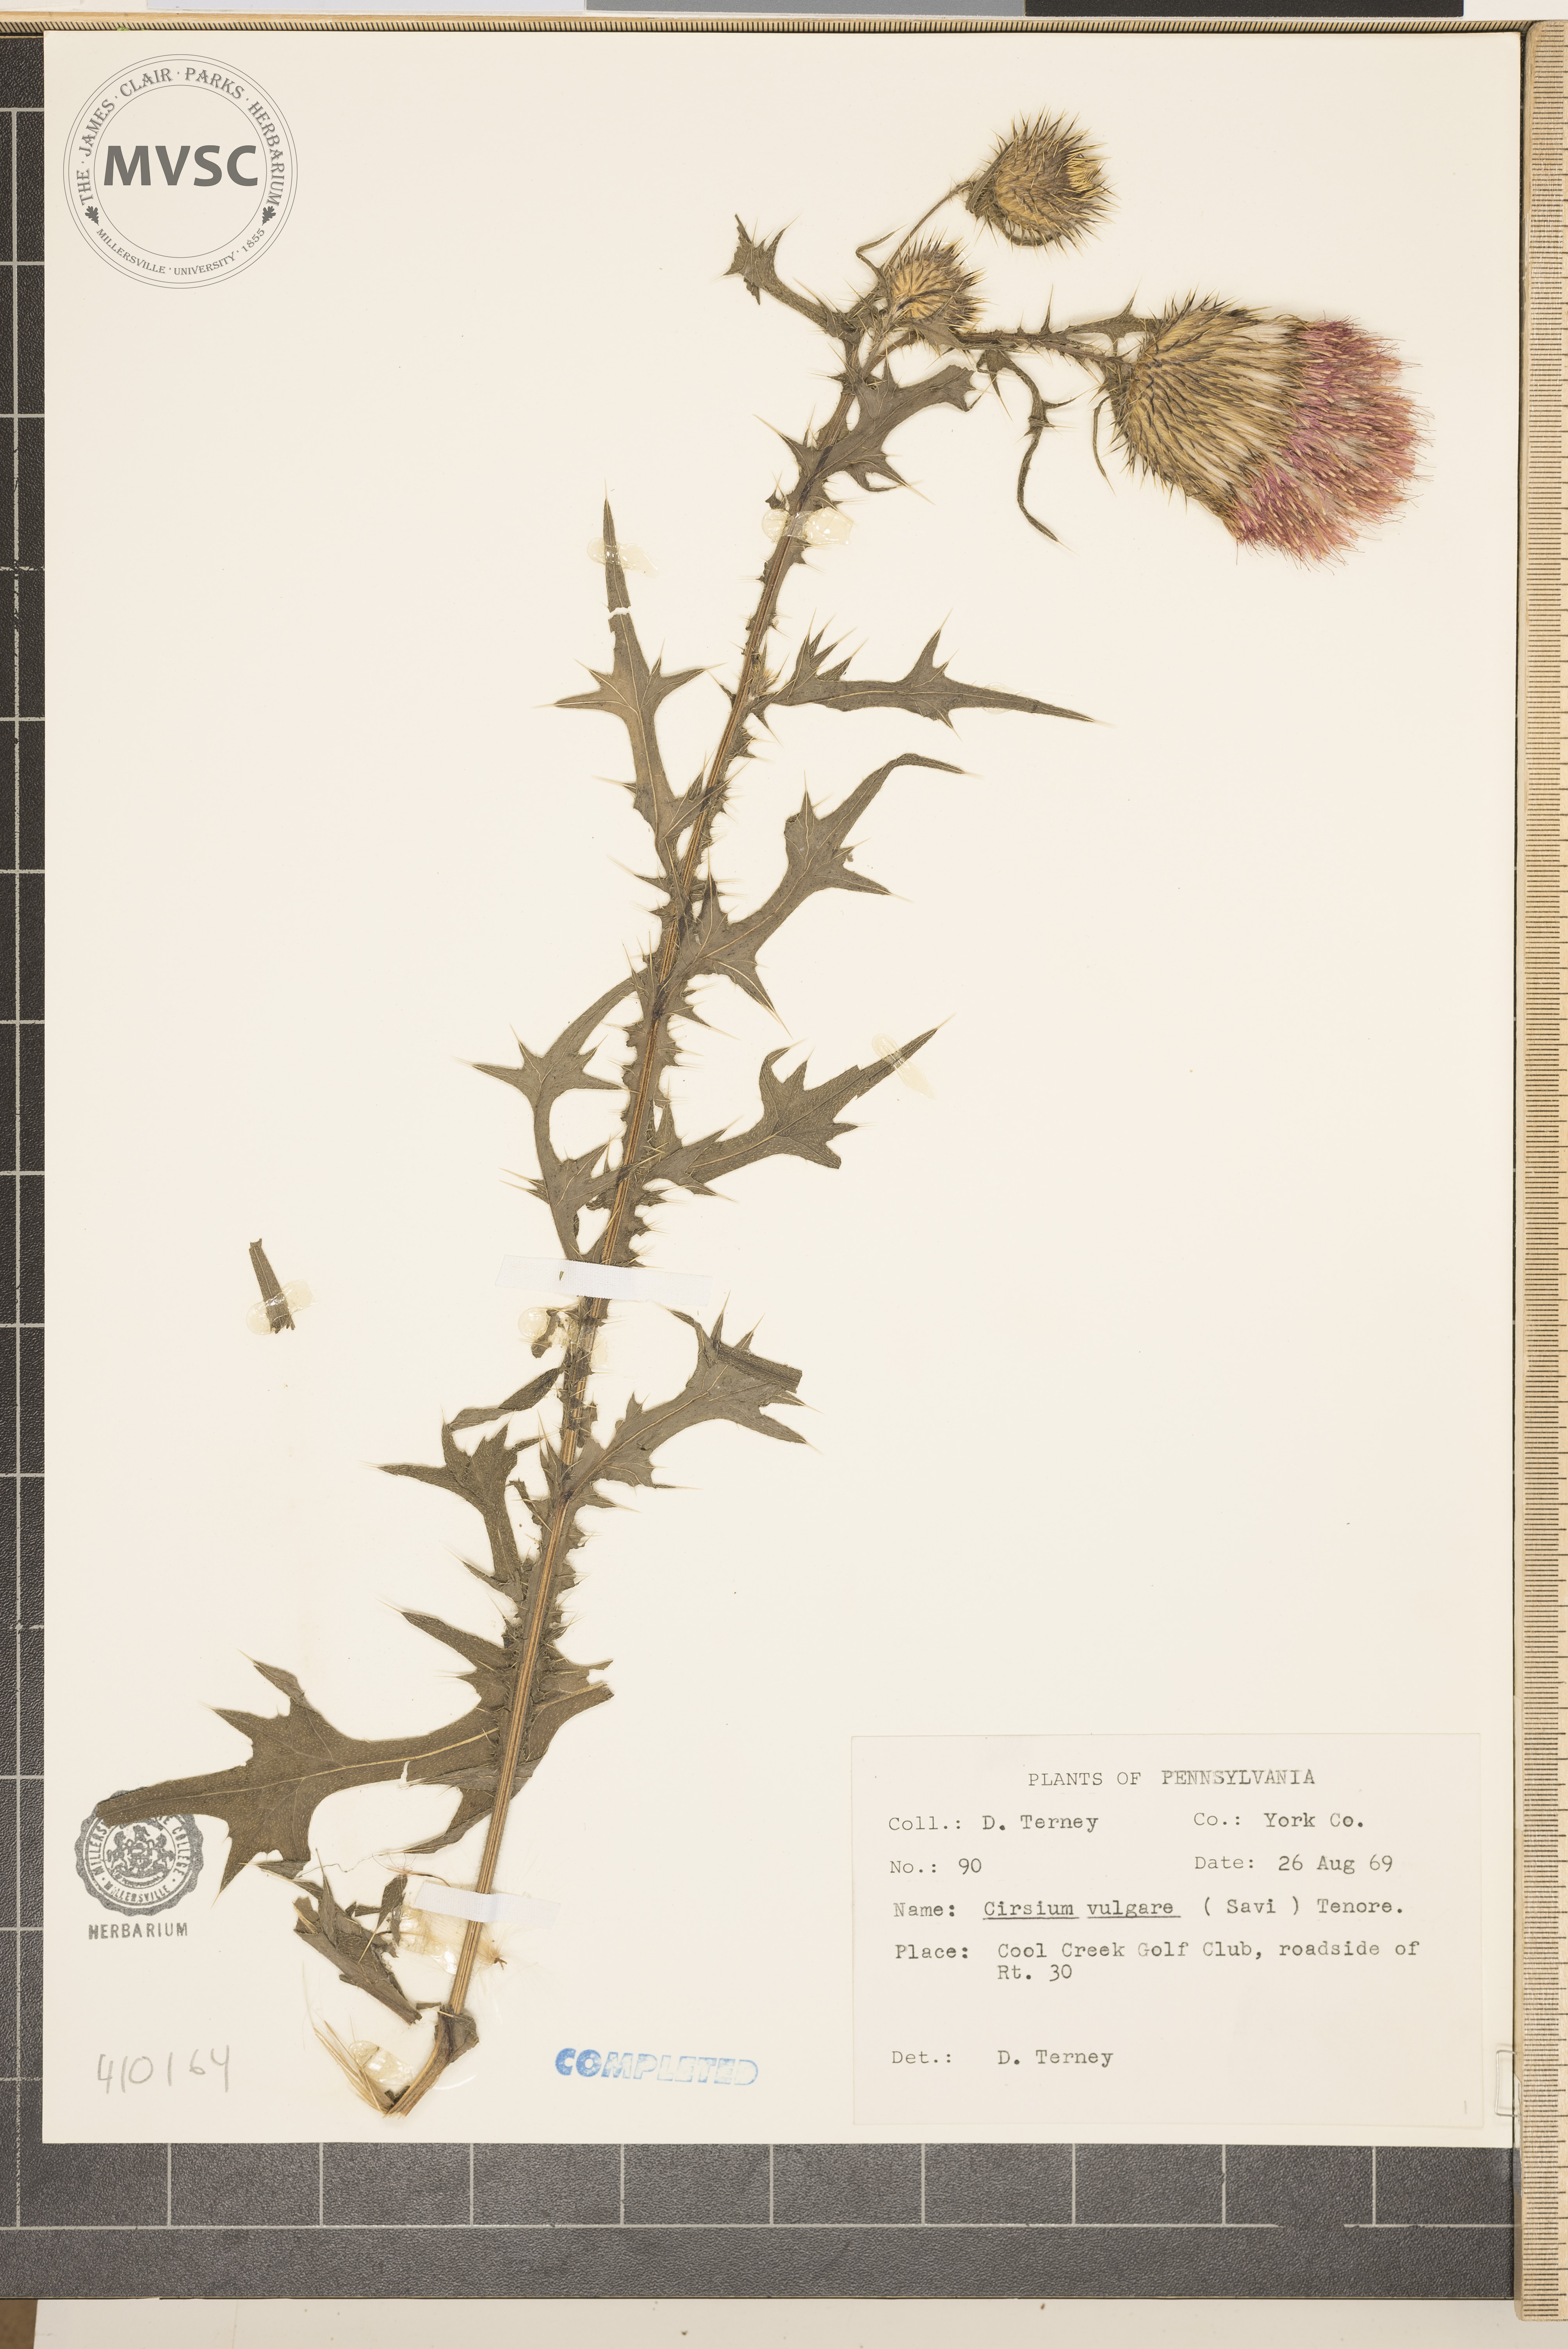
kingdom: Plantae
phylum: Tracheophyta
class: Magnoliopsida
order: Asterales
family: Asteraceae
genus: Cirsium
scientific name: Cirsium vulgare
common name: bull thistle
